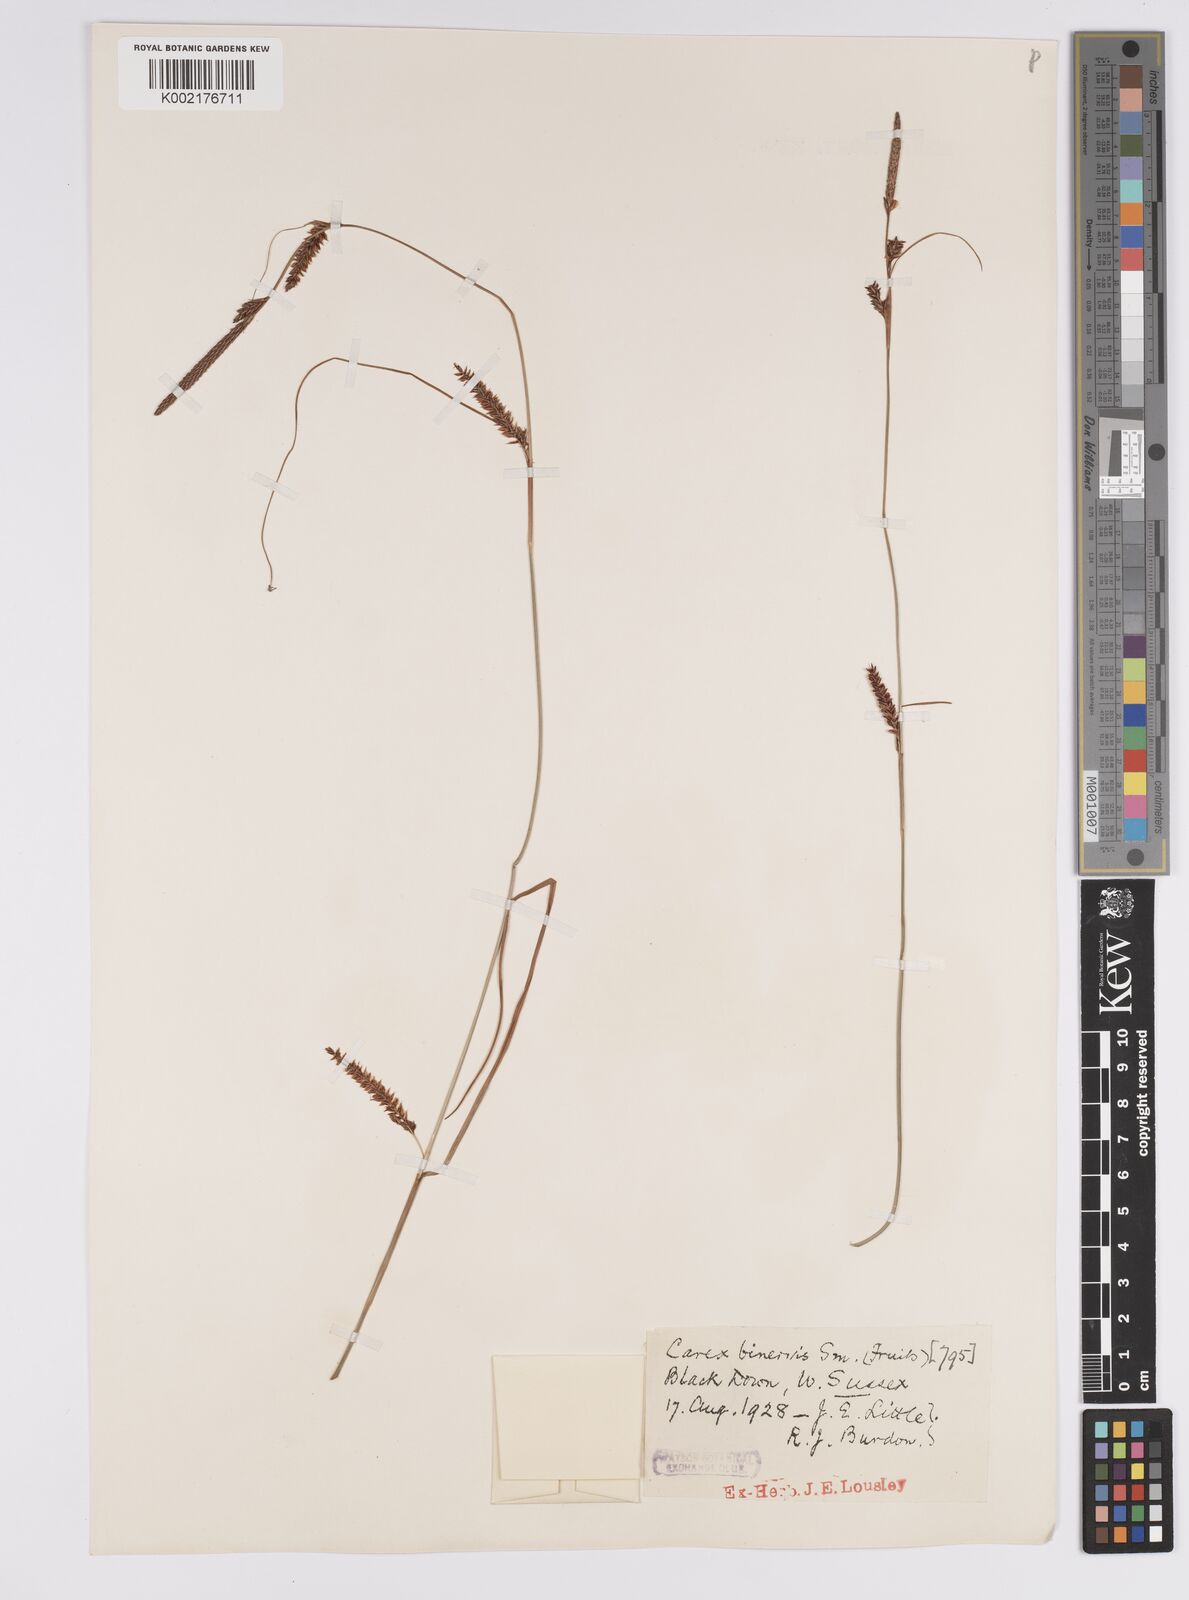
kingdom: Plantae
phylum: Tracheophyta
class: Liliopsida
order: Poales
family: Cyperaceae
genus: Carex
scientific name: Carex binervis
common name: Green-ribbed sedge
